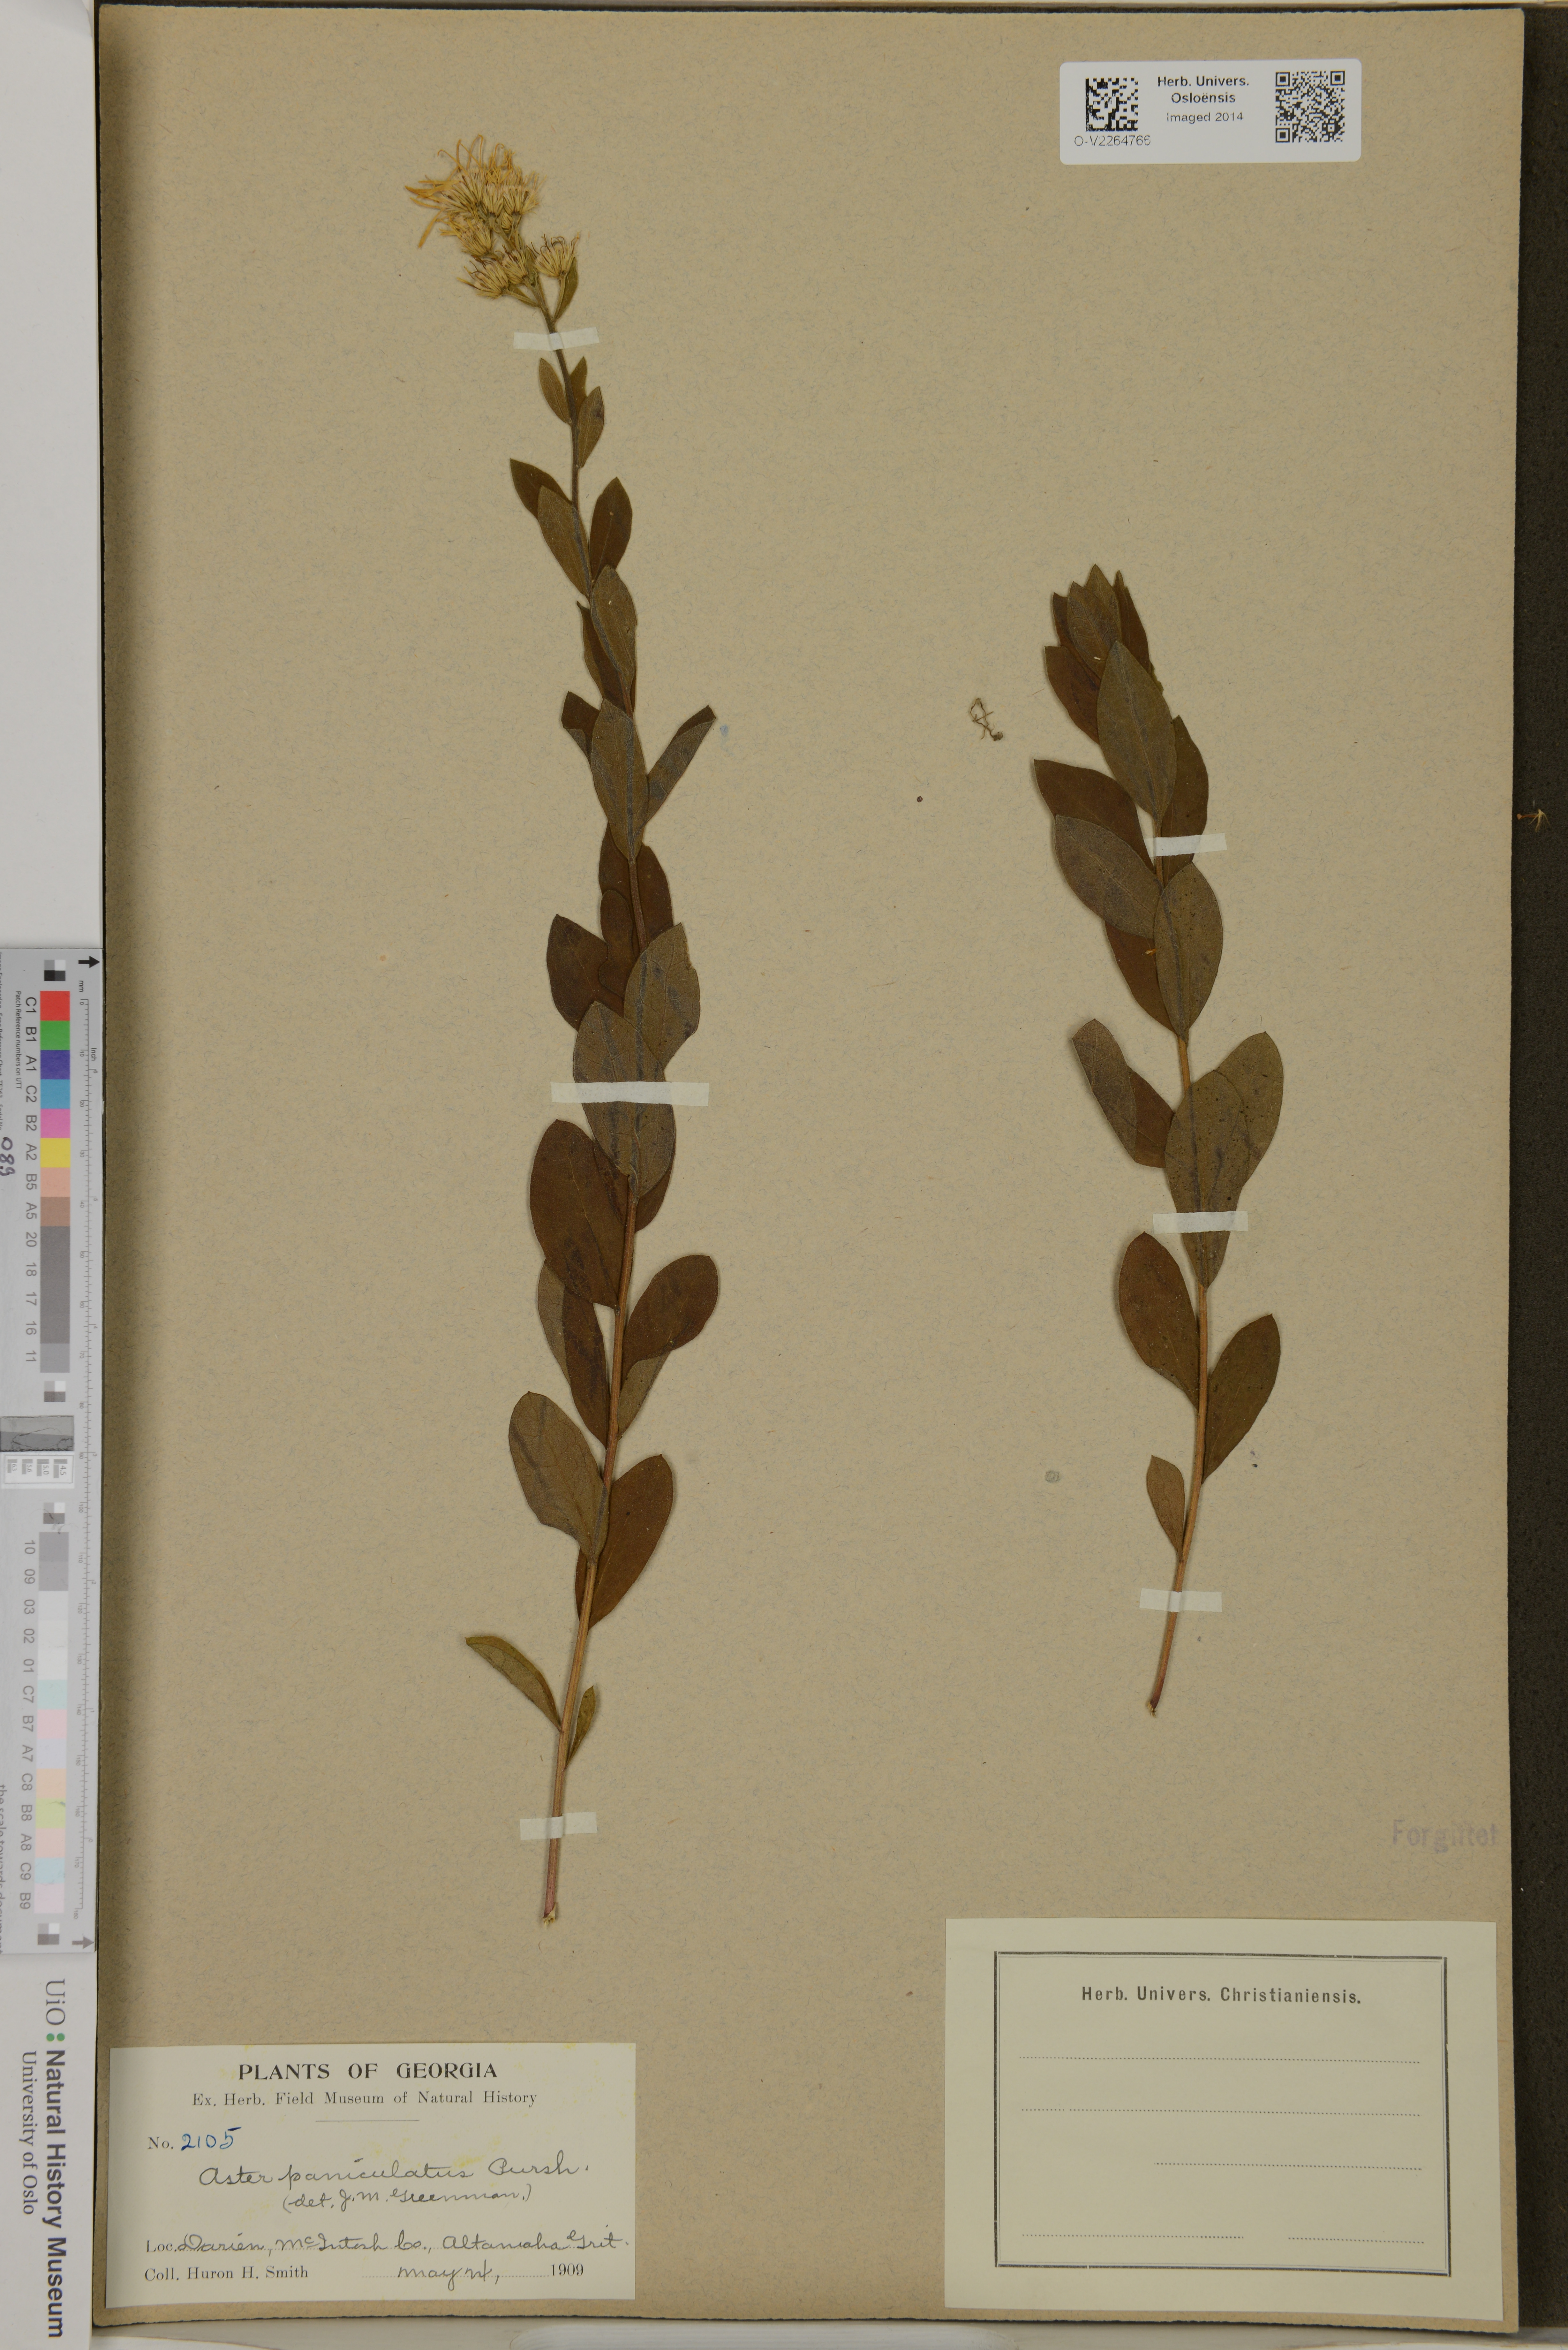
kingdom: Plantae
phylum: Tracheophyta
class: Magnoliopsida
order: Asterales
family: Asteraceae
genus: Aster
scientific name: Aster paniculatus
